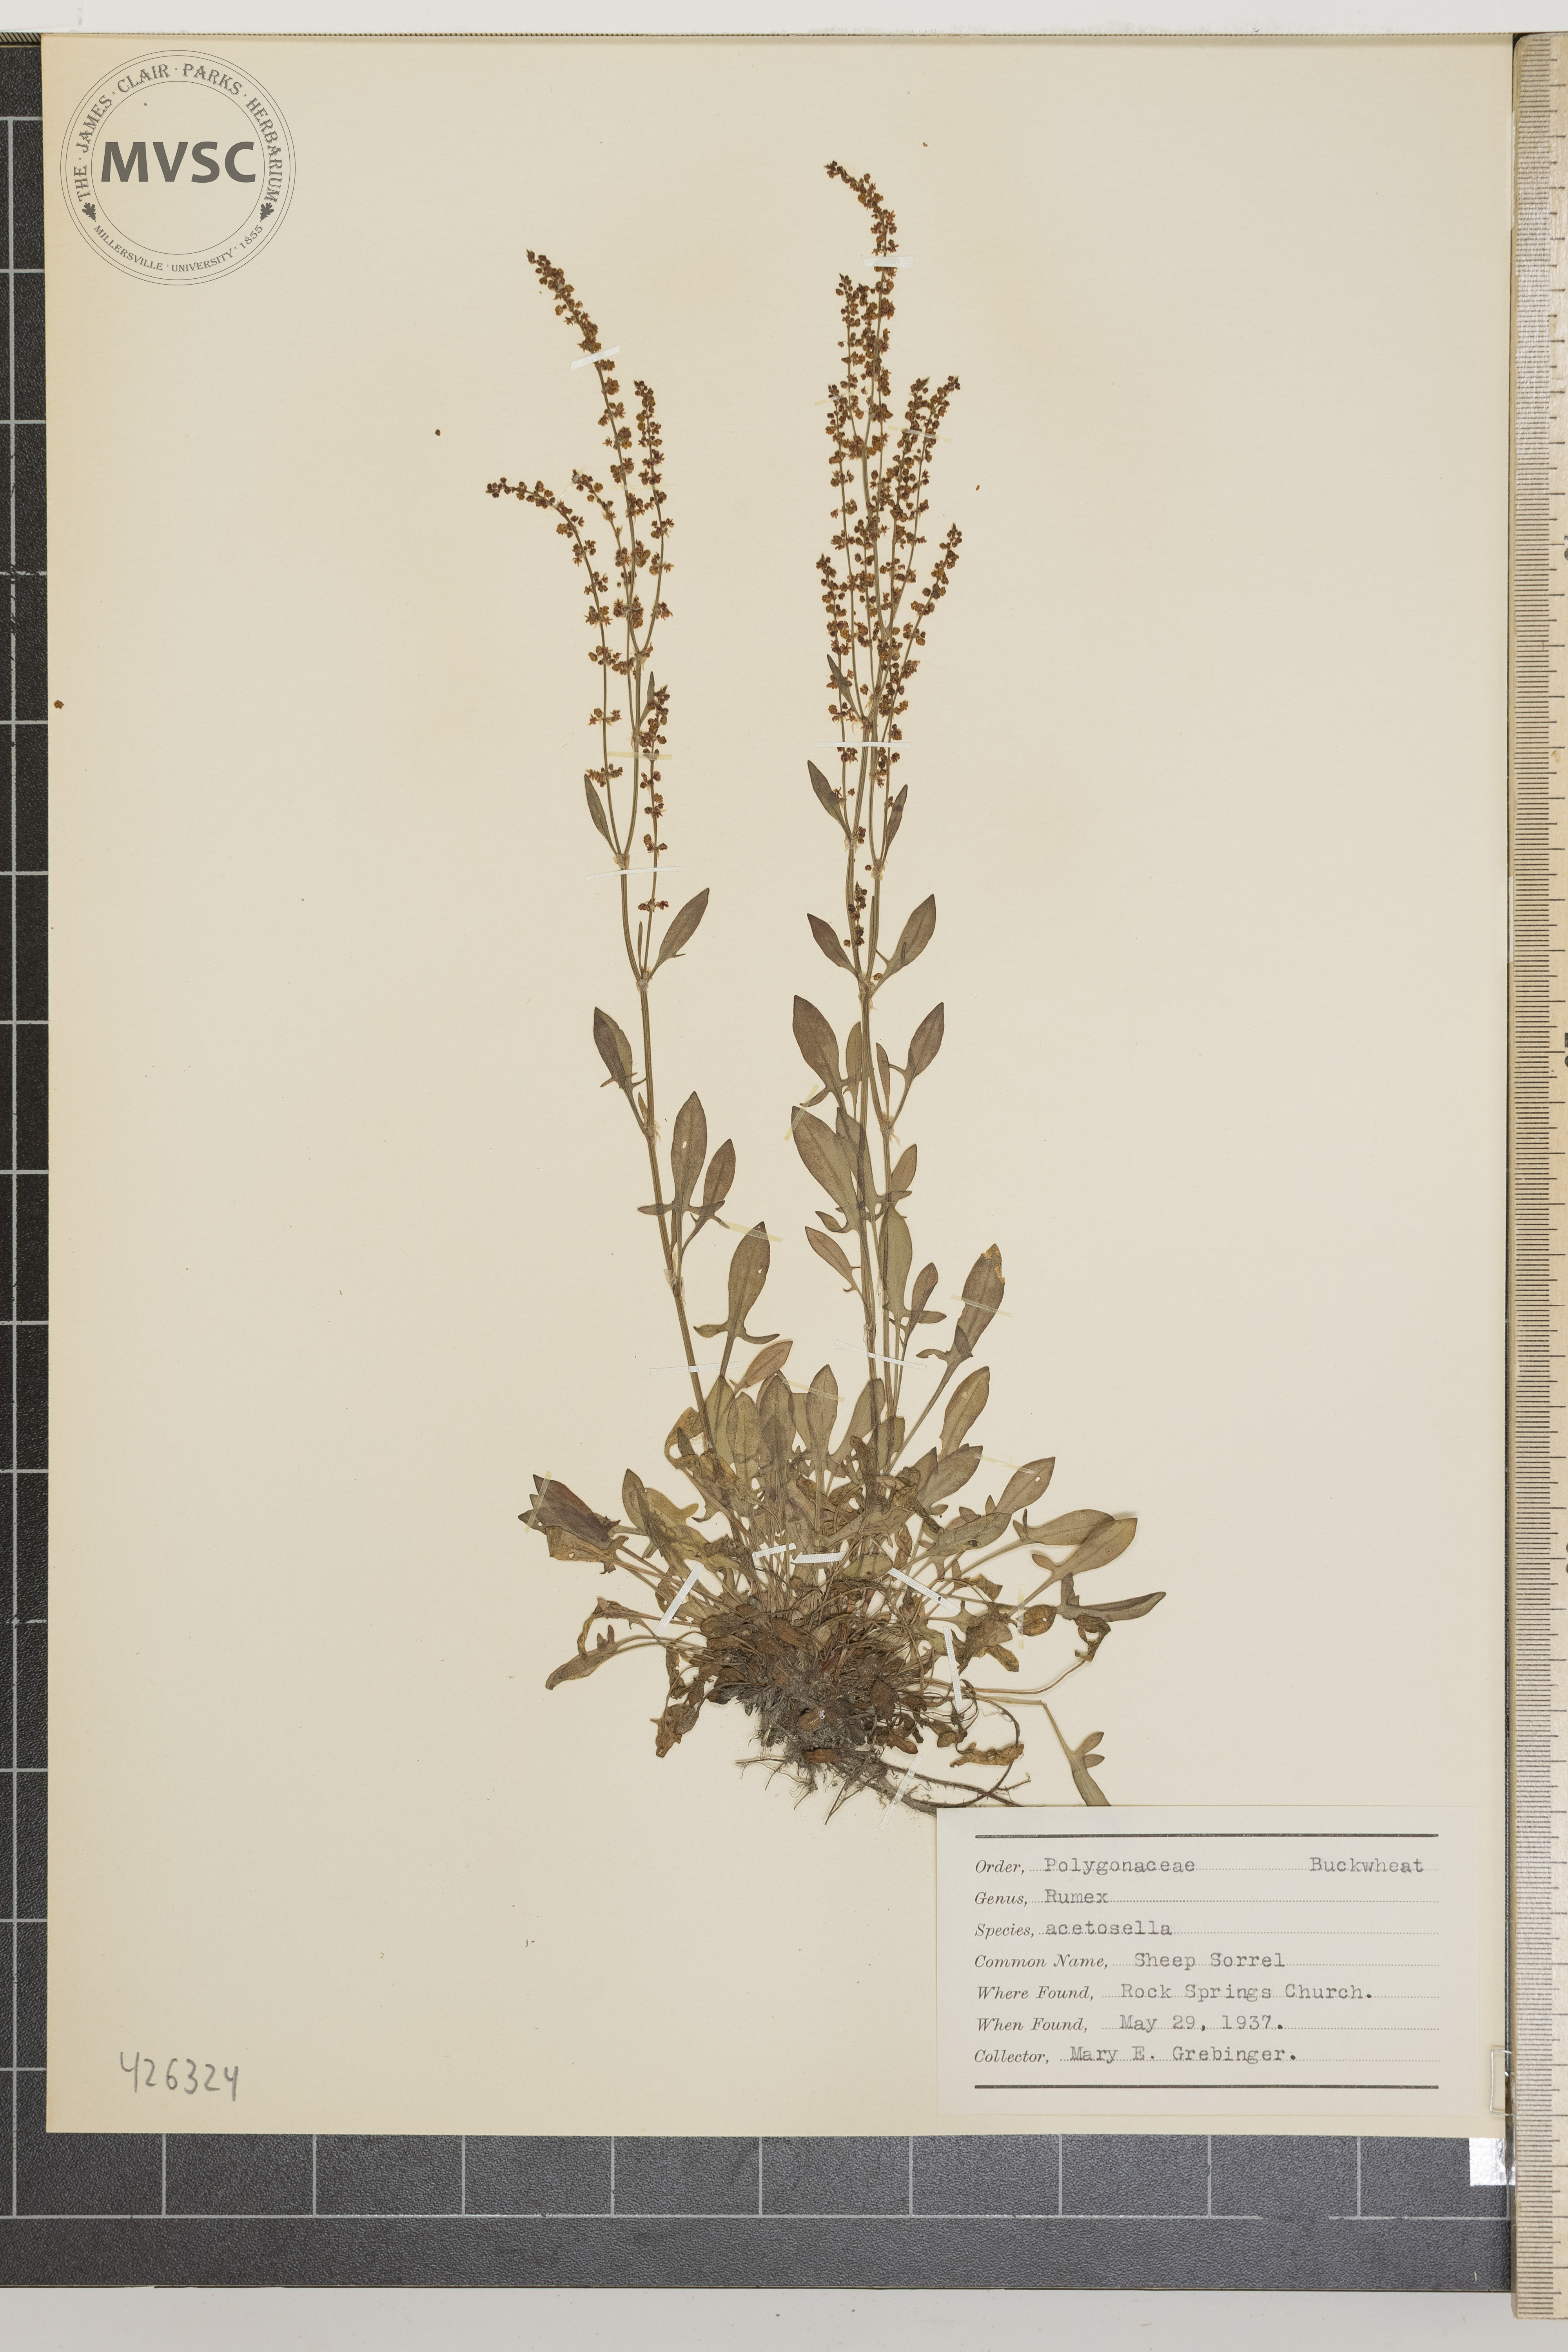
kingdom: Plantae
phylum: Tracheophyta
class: Magnoliopsida
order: Caryophyllales
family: Polygonaceae
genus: Rumex
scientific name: Rumex acetosella
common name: Sheep sorrel
